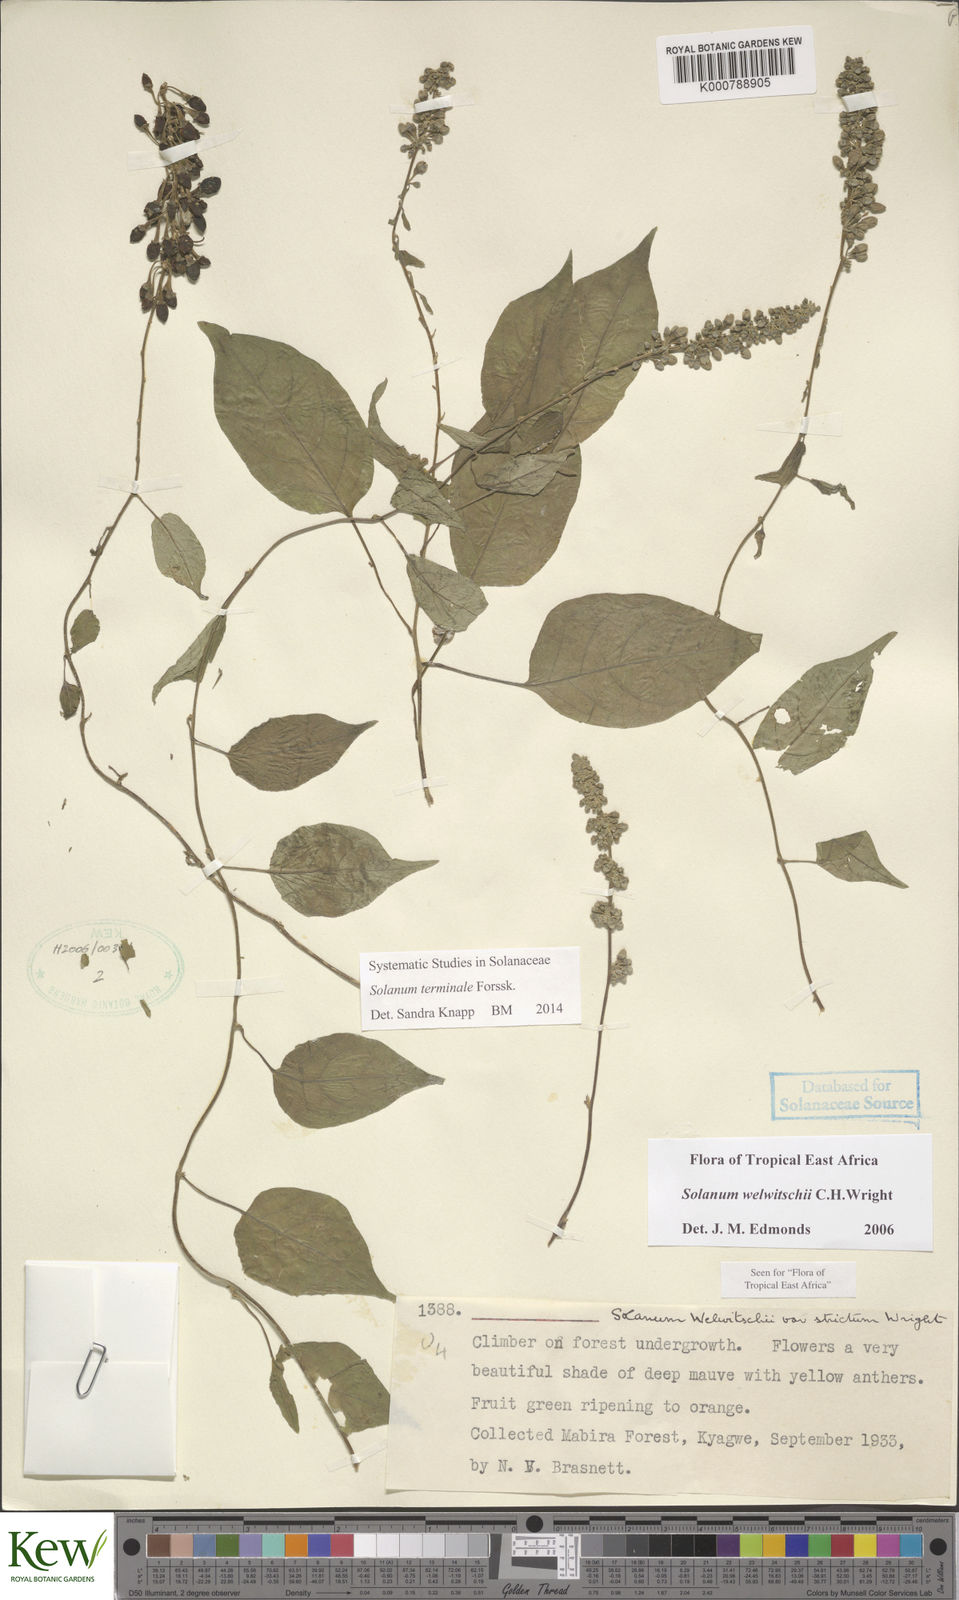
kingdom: Plantae
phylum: Tracheophyta
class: Magnoliopsida
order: Solanales
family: Solanaceae
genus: Solanum
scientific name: Solanum terminale
